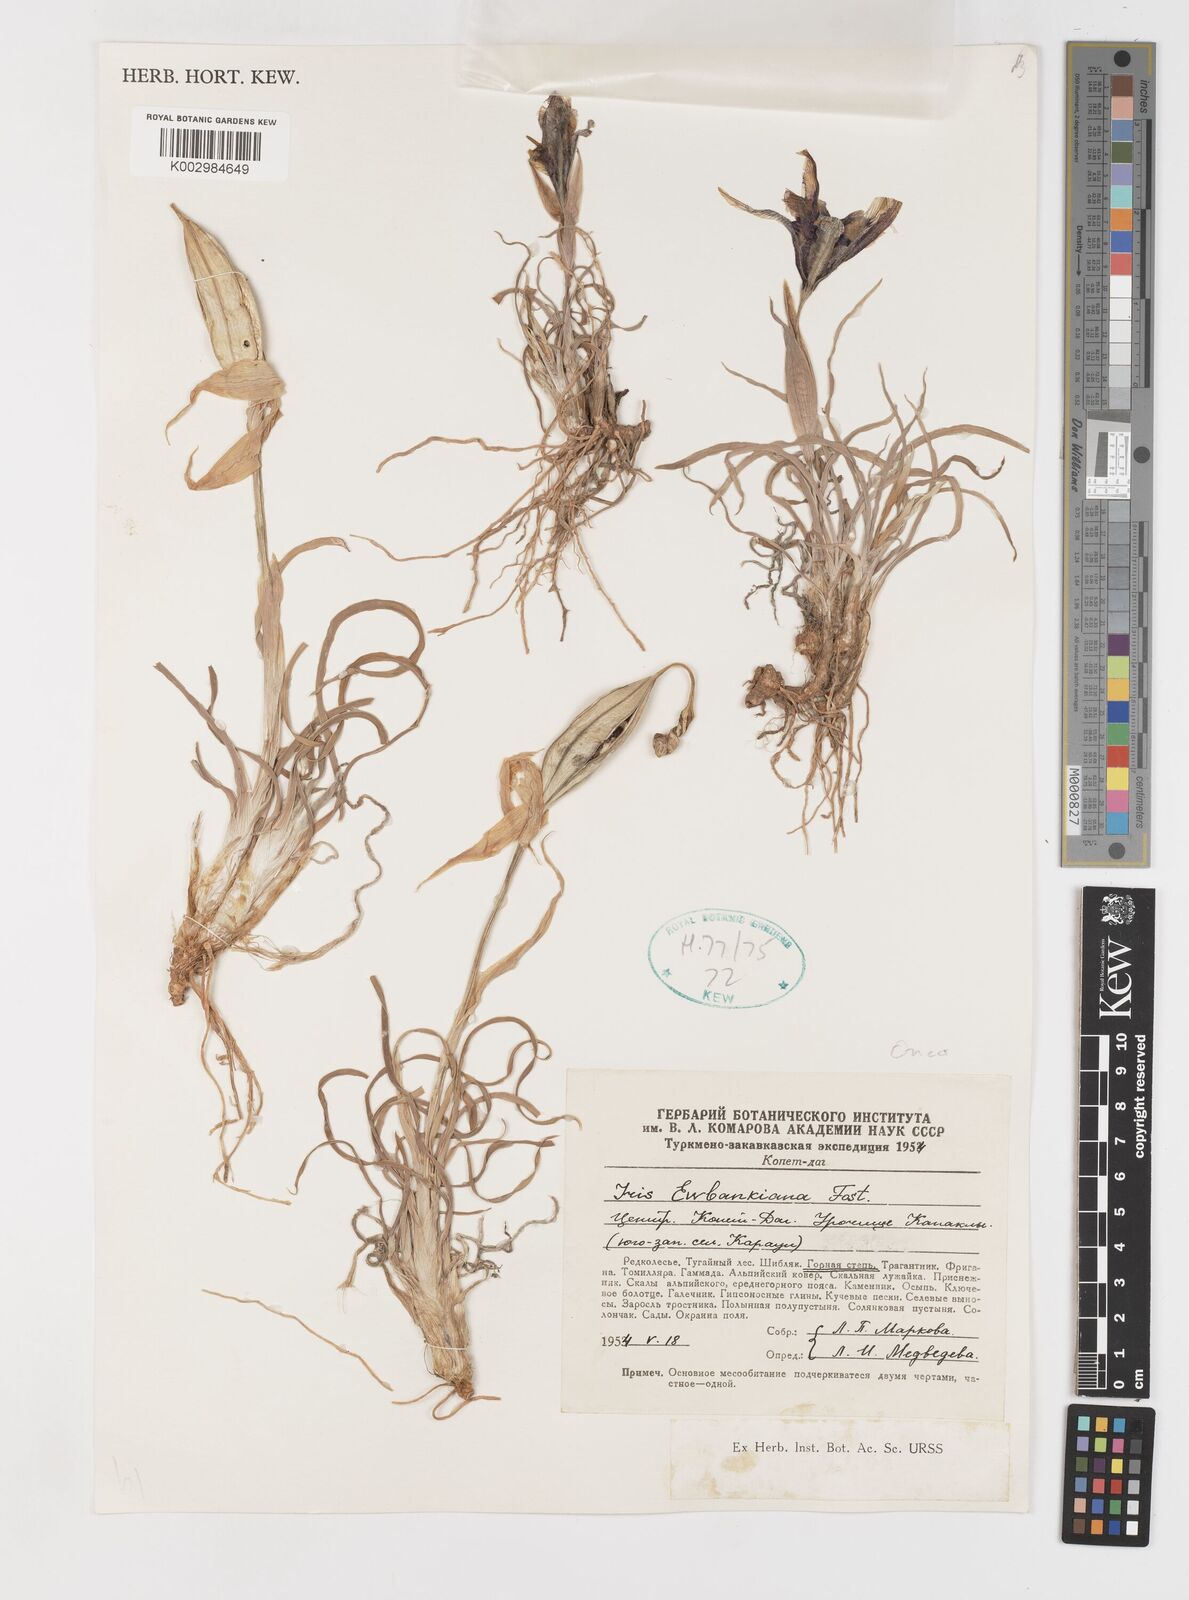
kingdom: Plantae
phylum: Tracheophyta
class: Liliopsida
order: Asparagales
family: Iridaceae
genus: Iris
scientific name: Iris acutiloba
